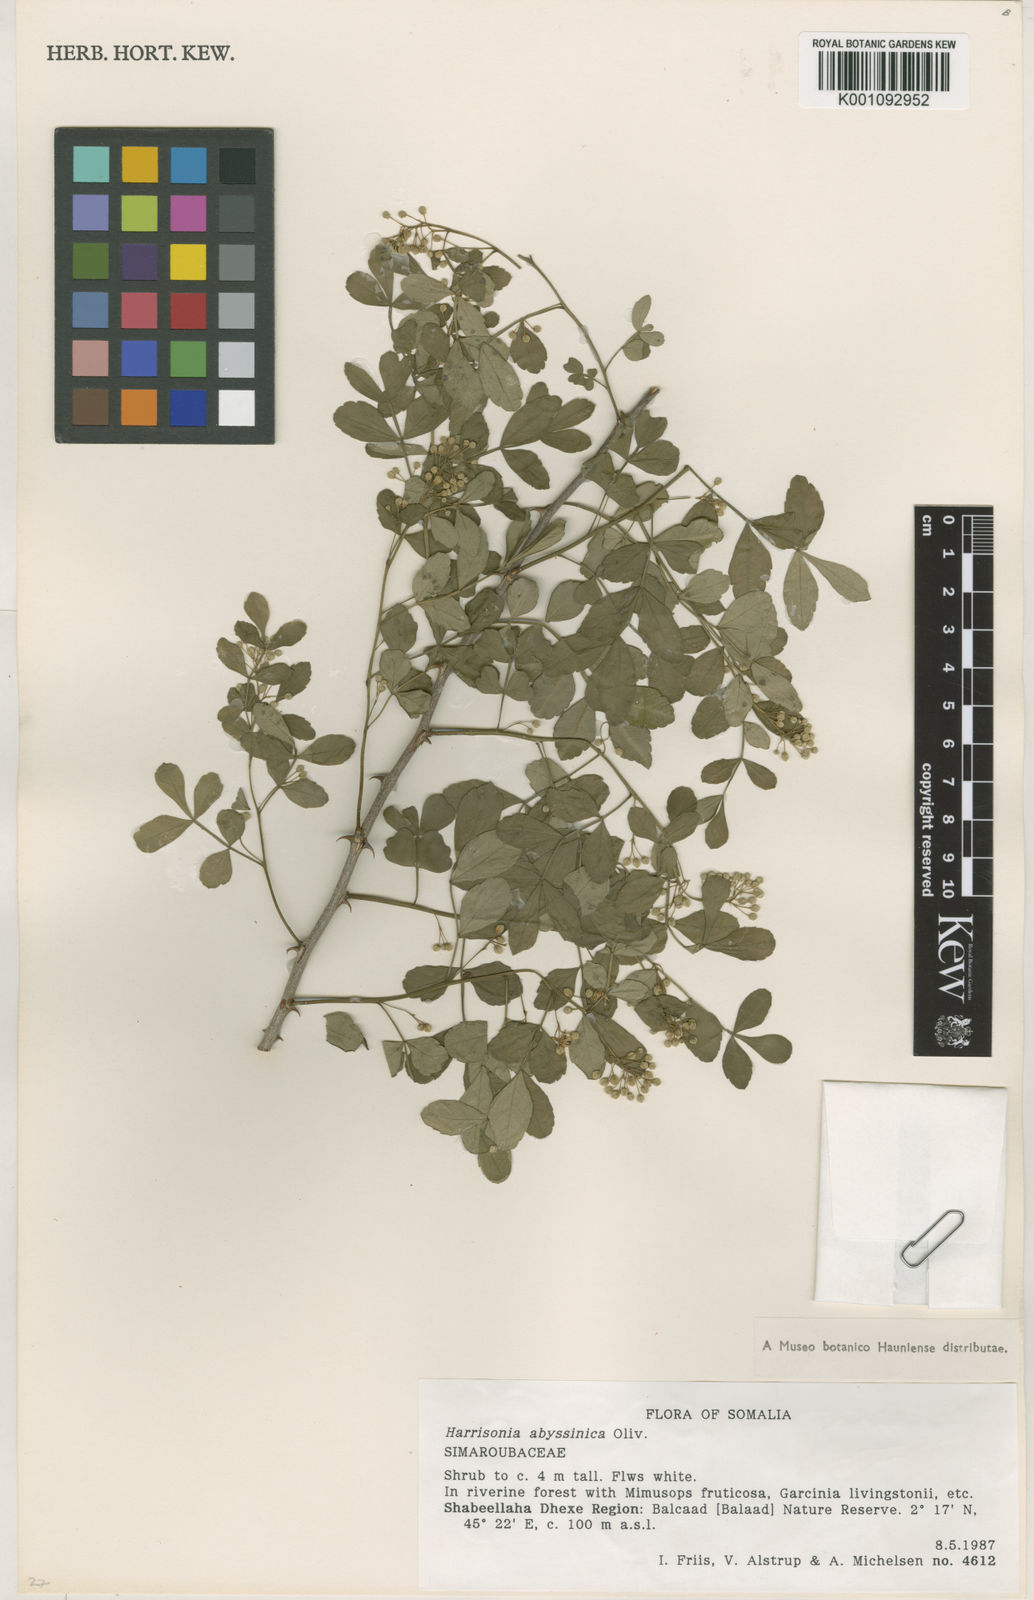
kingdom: Plantae
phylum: Tracheophyta
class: Magnoliopsida
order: Sapindales
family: Rutaceae
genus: Harrisonia
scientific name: Harrisonia abyssinica
